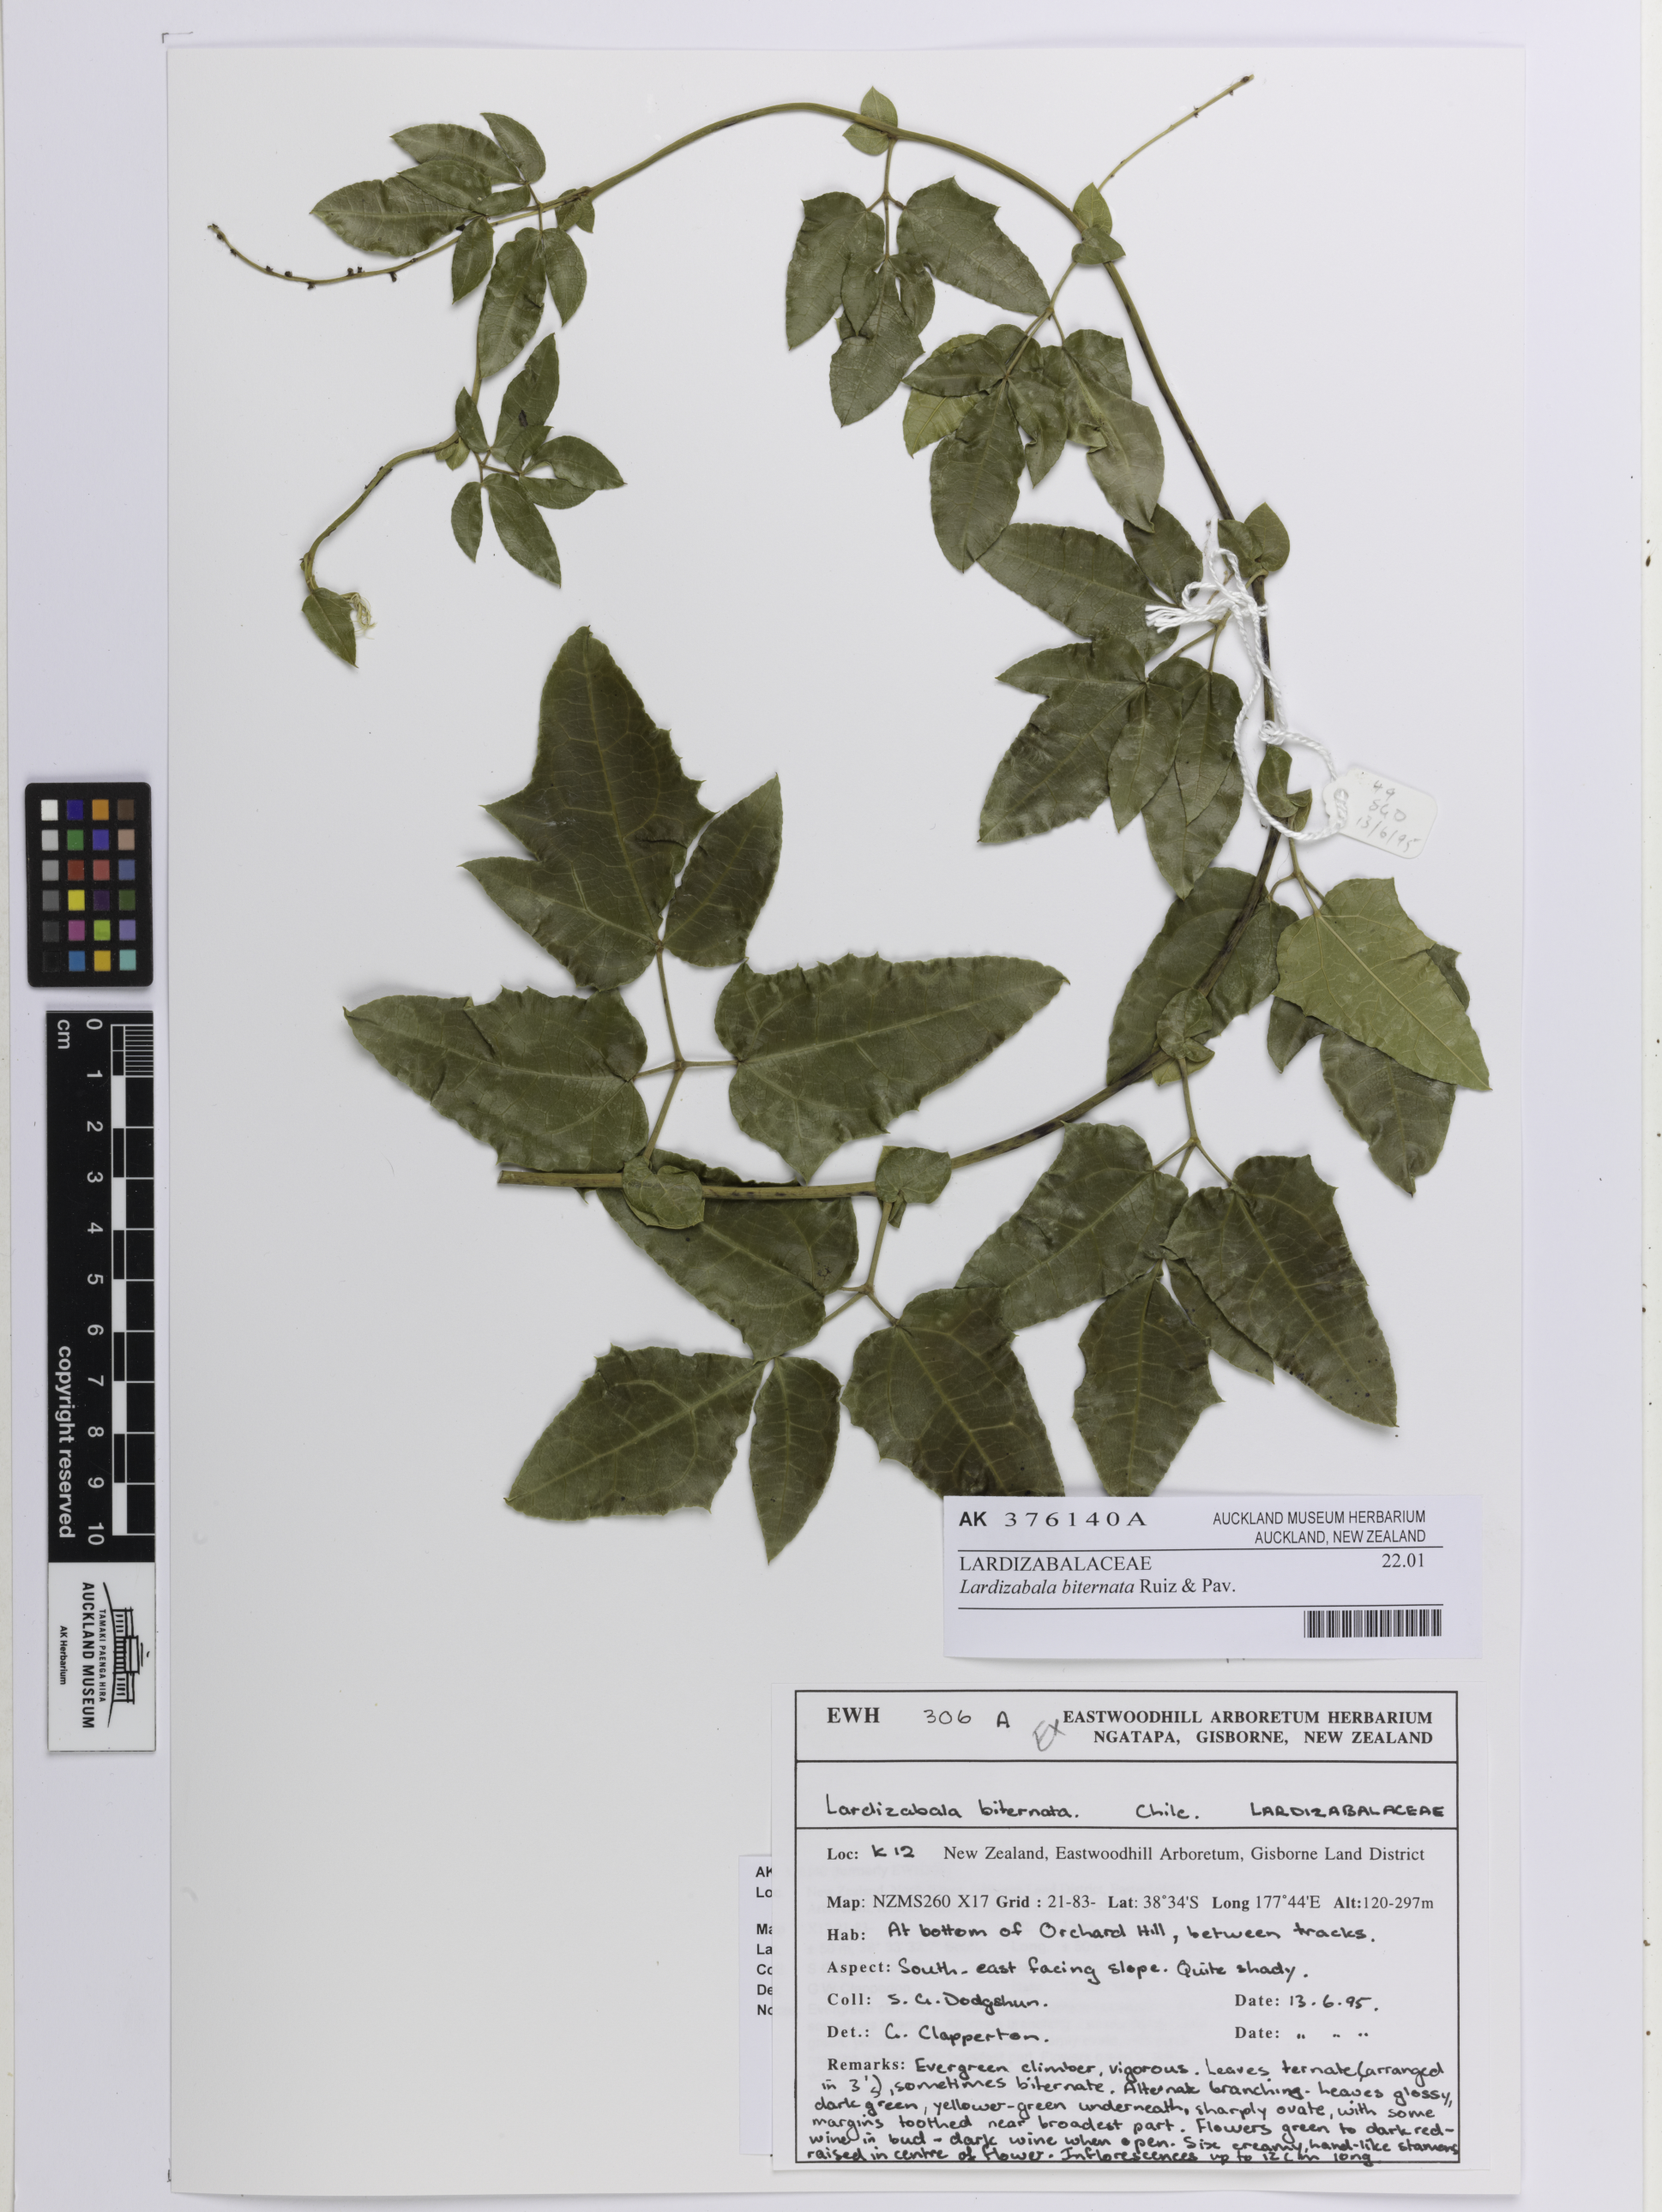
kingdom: Plantae
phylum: Tracheophyta
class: Magnoliopsida
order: Ranunculales
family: Lardizabalaceae
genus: Lardizabala
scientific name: Lardizabala funaria
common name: Zabala
